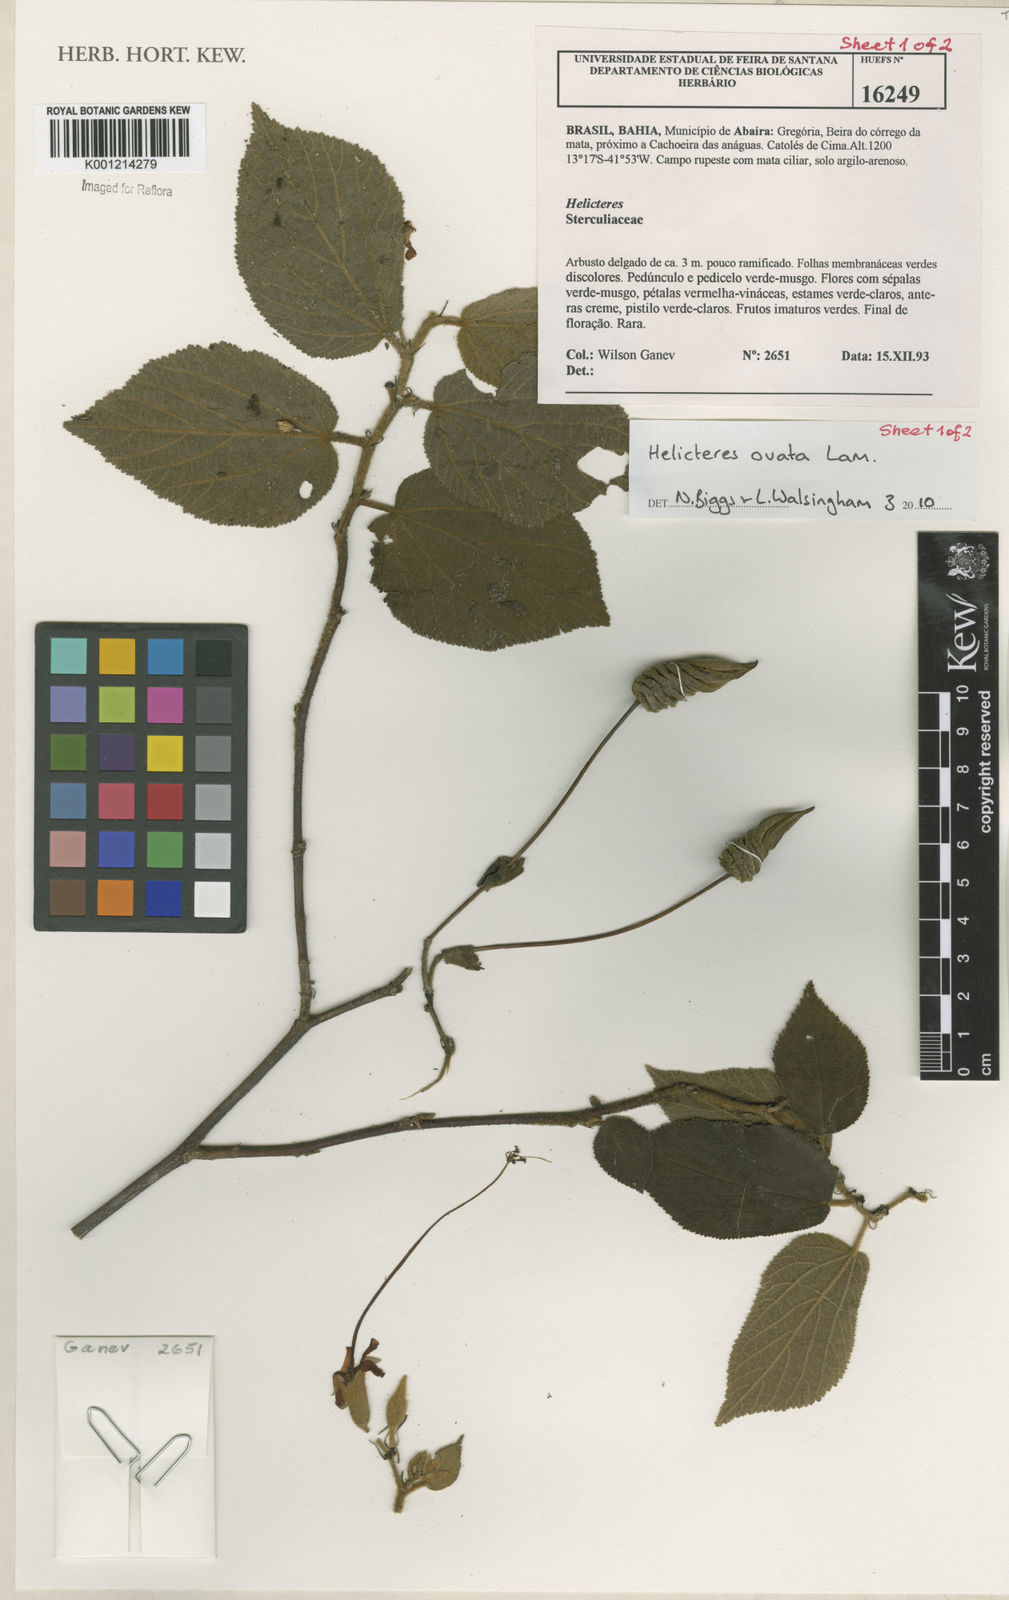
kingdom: Plantae
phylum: Tracheophyta
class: Magnoliopsida
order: Malvales
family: Malvaceae
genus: Helicteres
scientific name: Helicteres ovata
